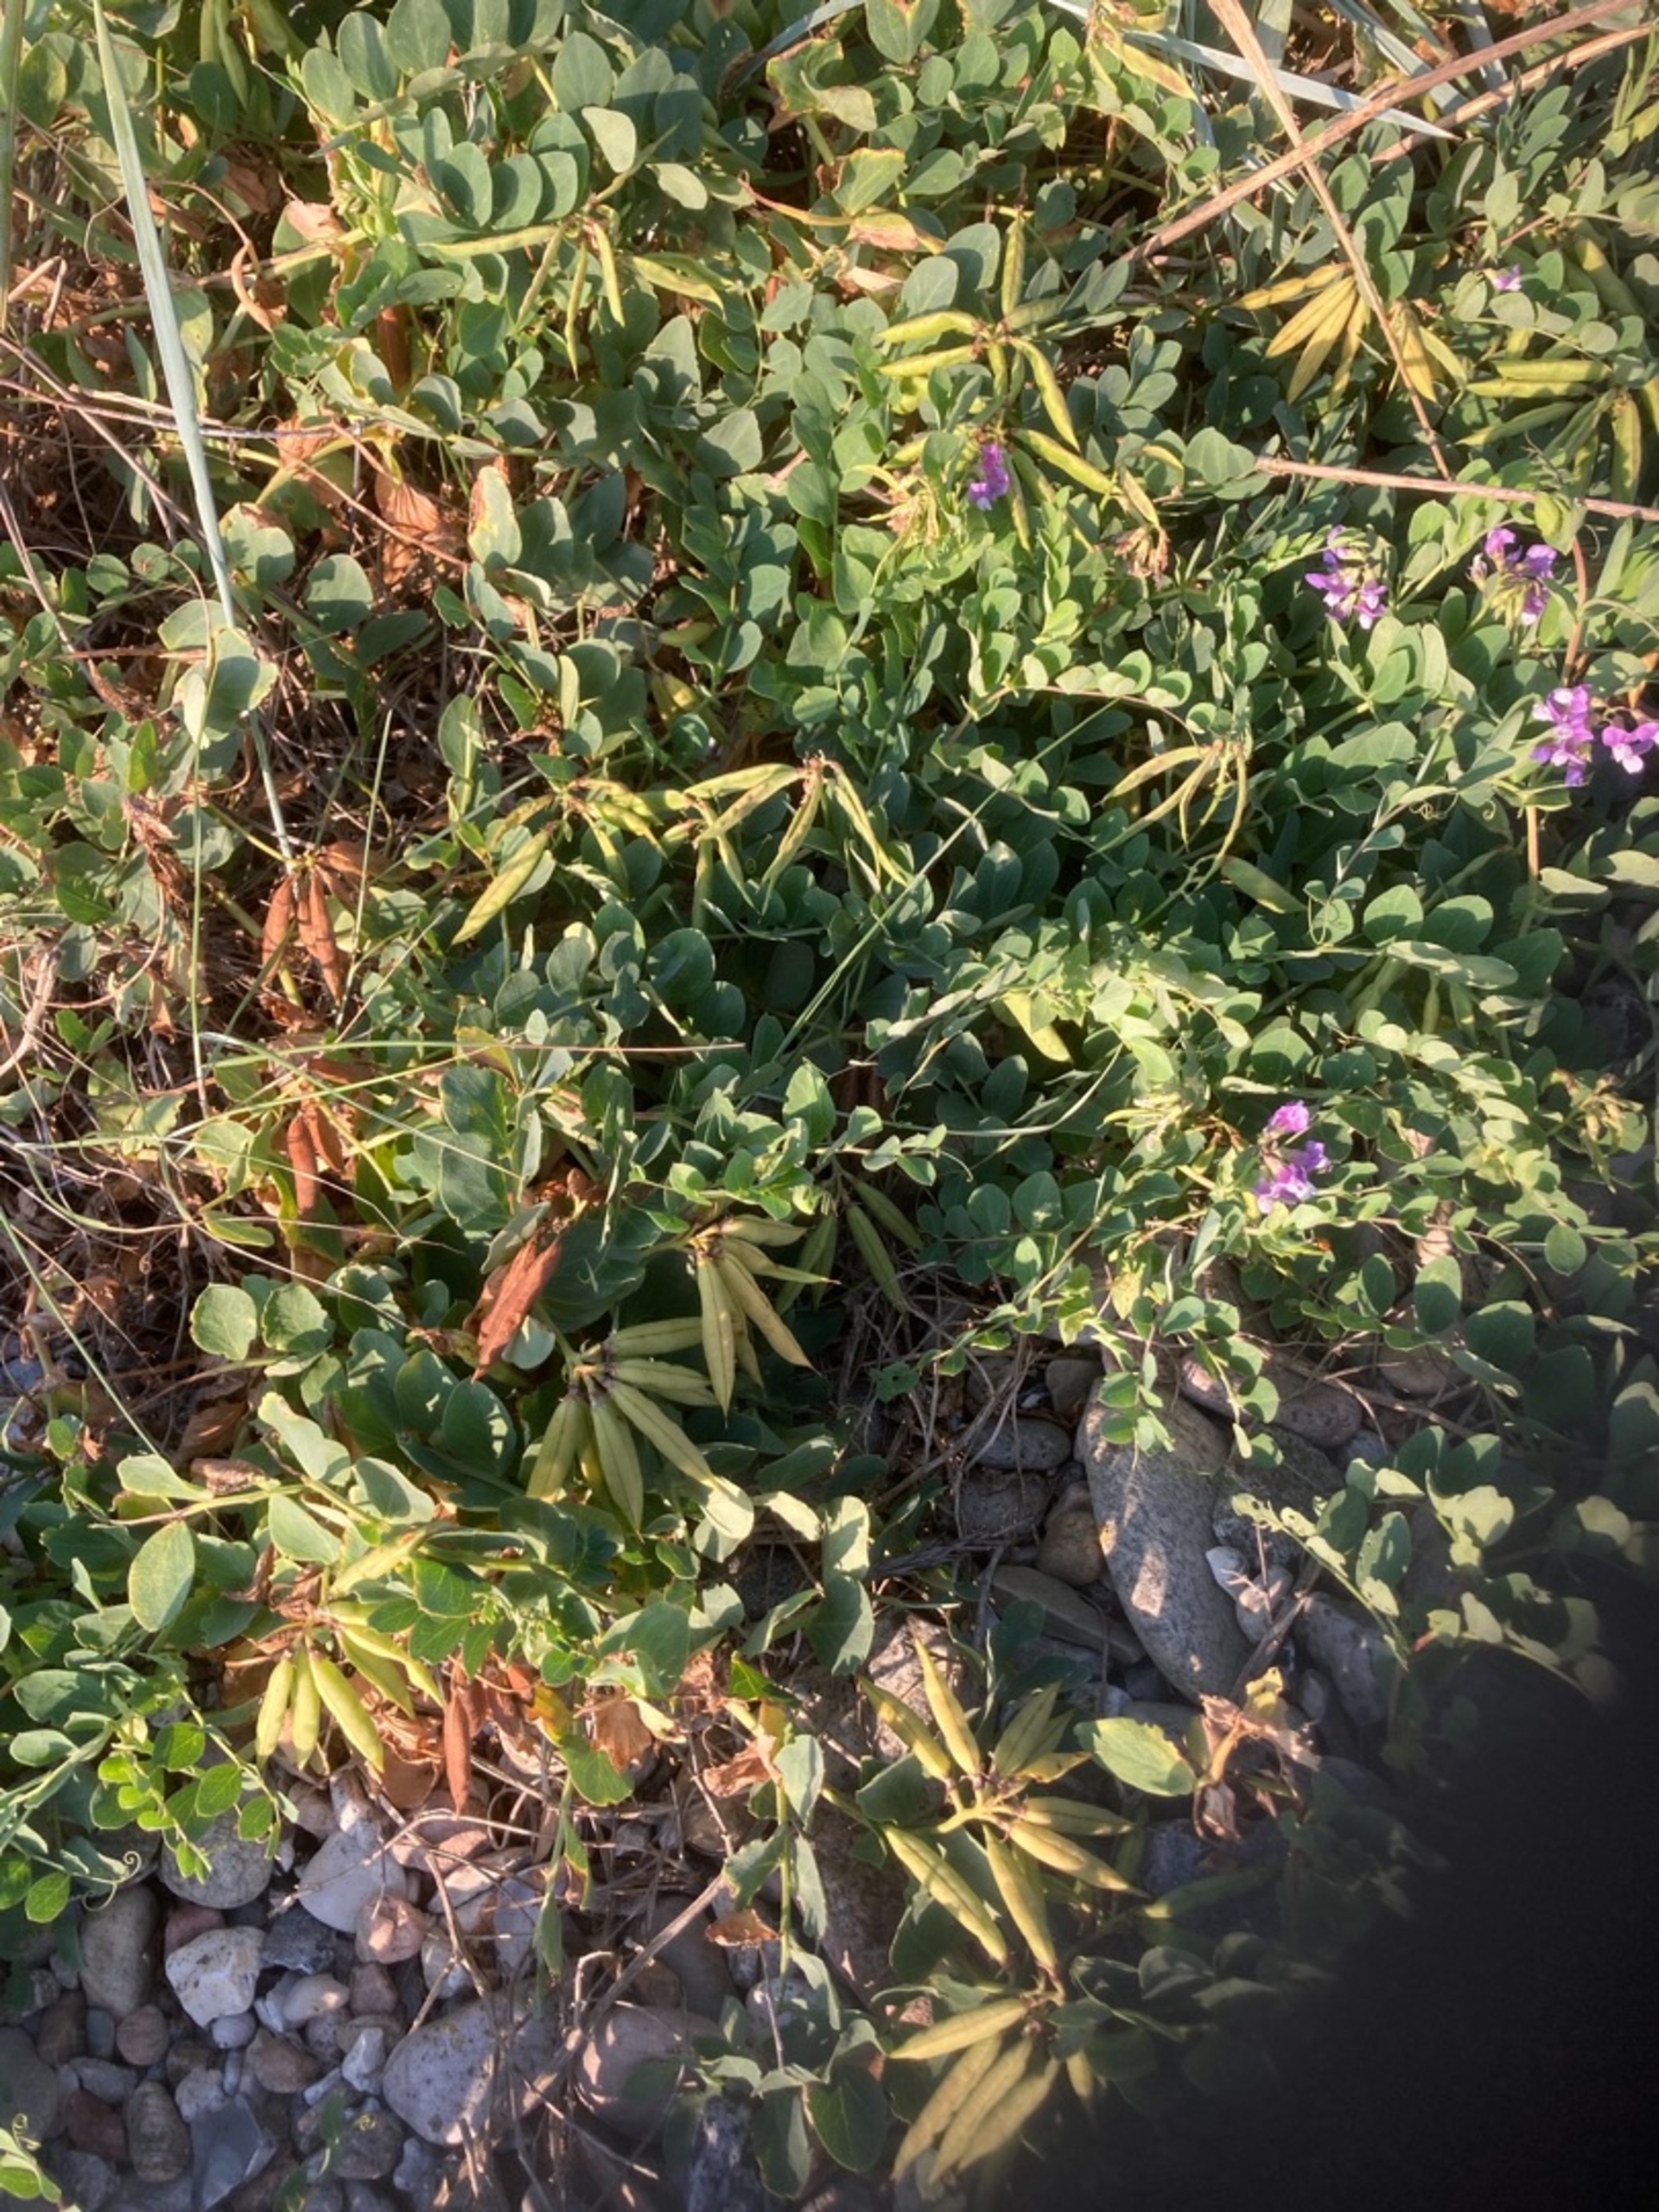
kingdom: Plantae
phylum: Tracheophyta
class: Magnoliopsida
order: Fabales
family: Fabaceae
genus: Lathyrus
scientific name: Lathyrus japonicus
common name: Strand-fladbælg
